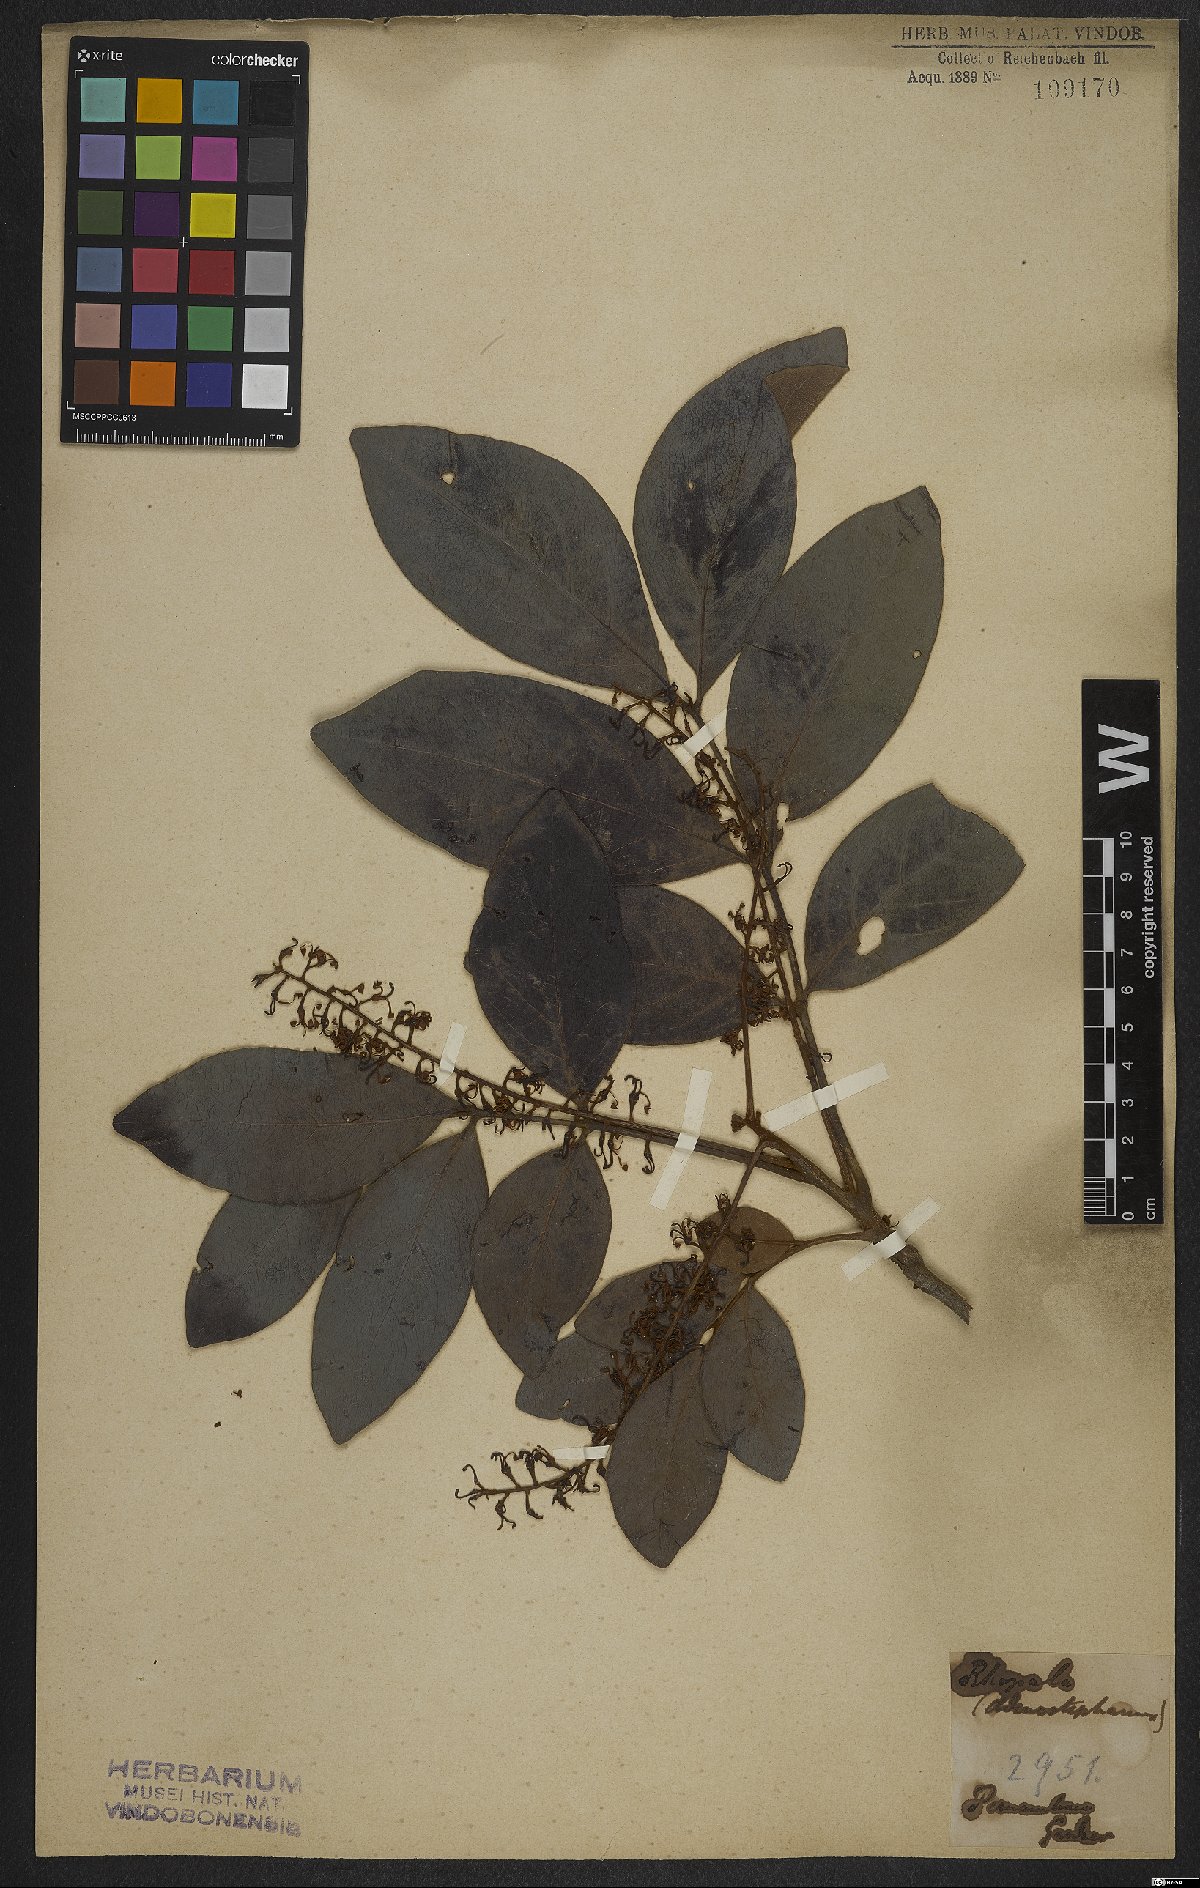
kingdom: Plantae
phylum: Tracheophyta
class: Magnoliopsida
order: Proteales
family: Proteaceae
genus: Euplassa
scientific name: Euplassa inaequalis
